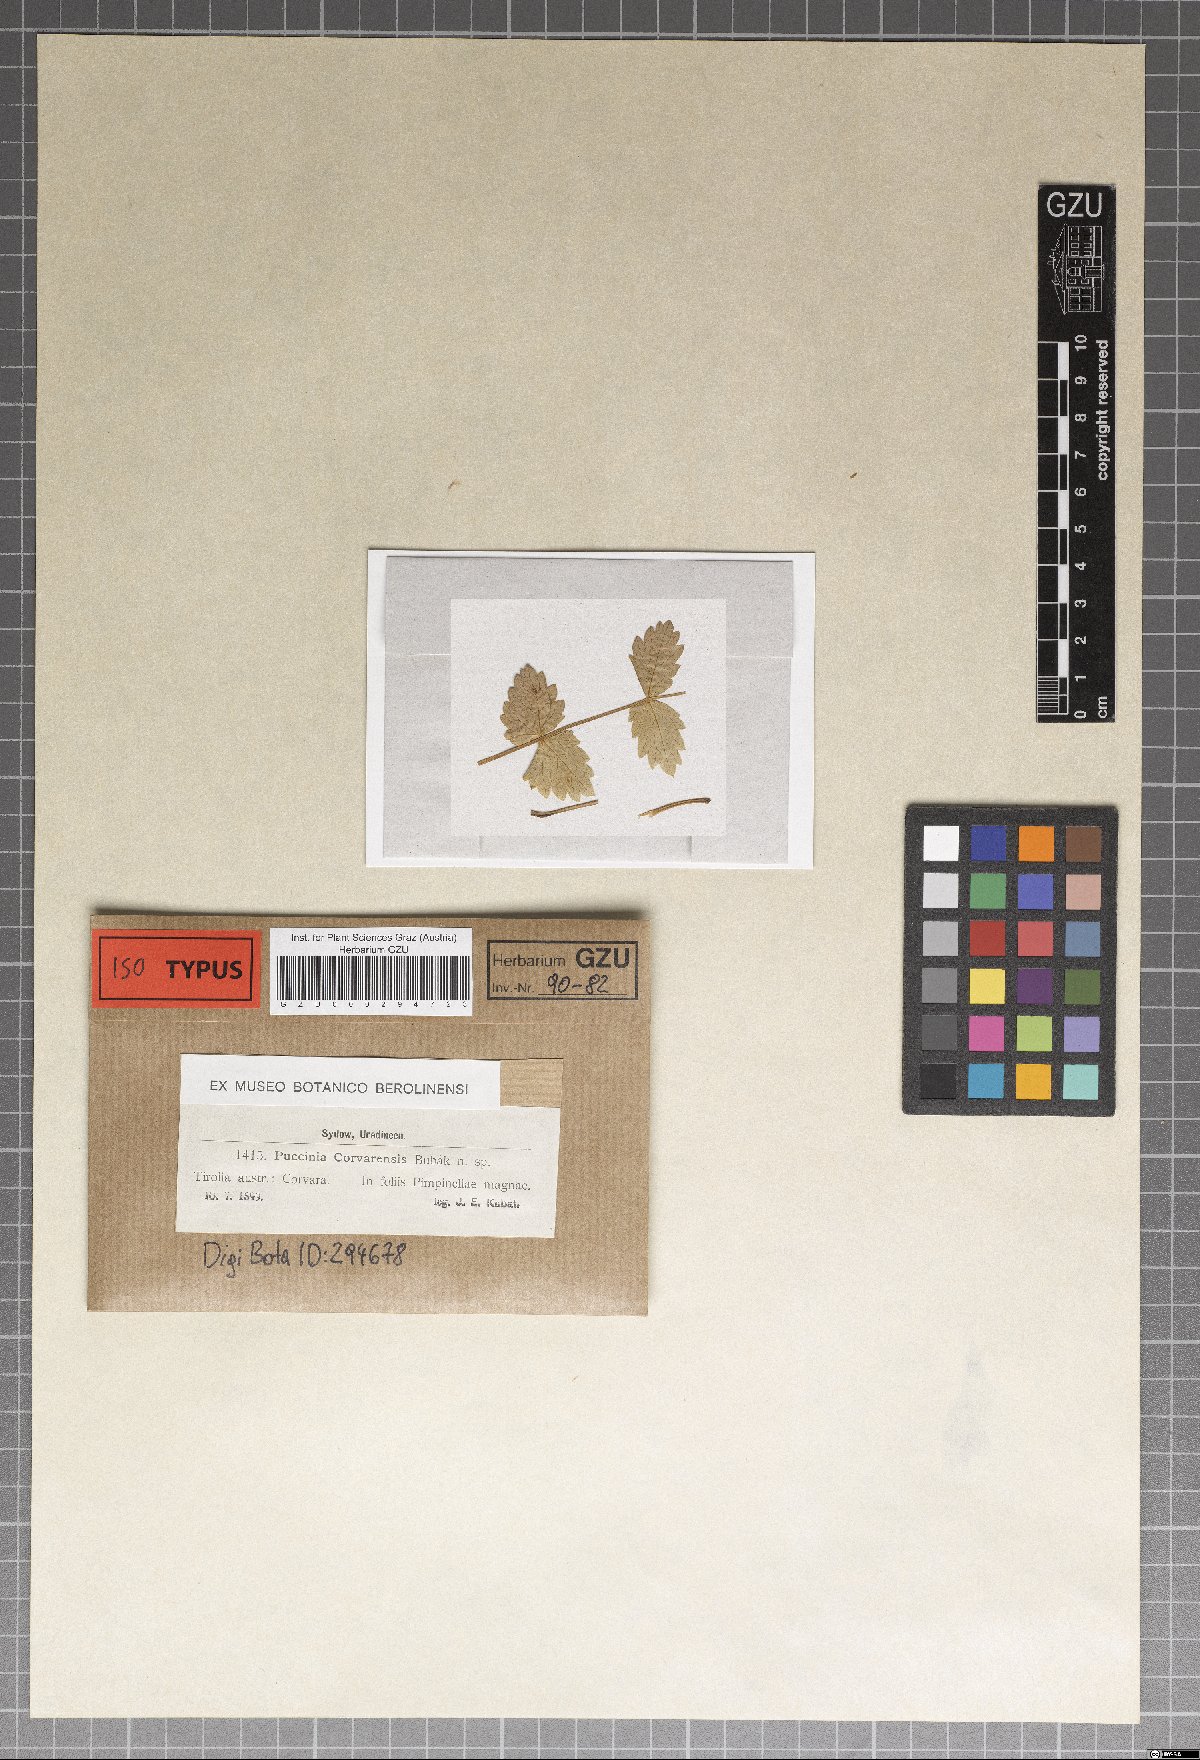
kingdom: Fungi
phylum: Basidiomycota
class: Pucciniomycetes
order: Pucciniales
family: Pucciniaceae
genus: Puccinia
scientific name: Puccinia corvarensis
